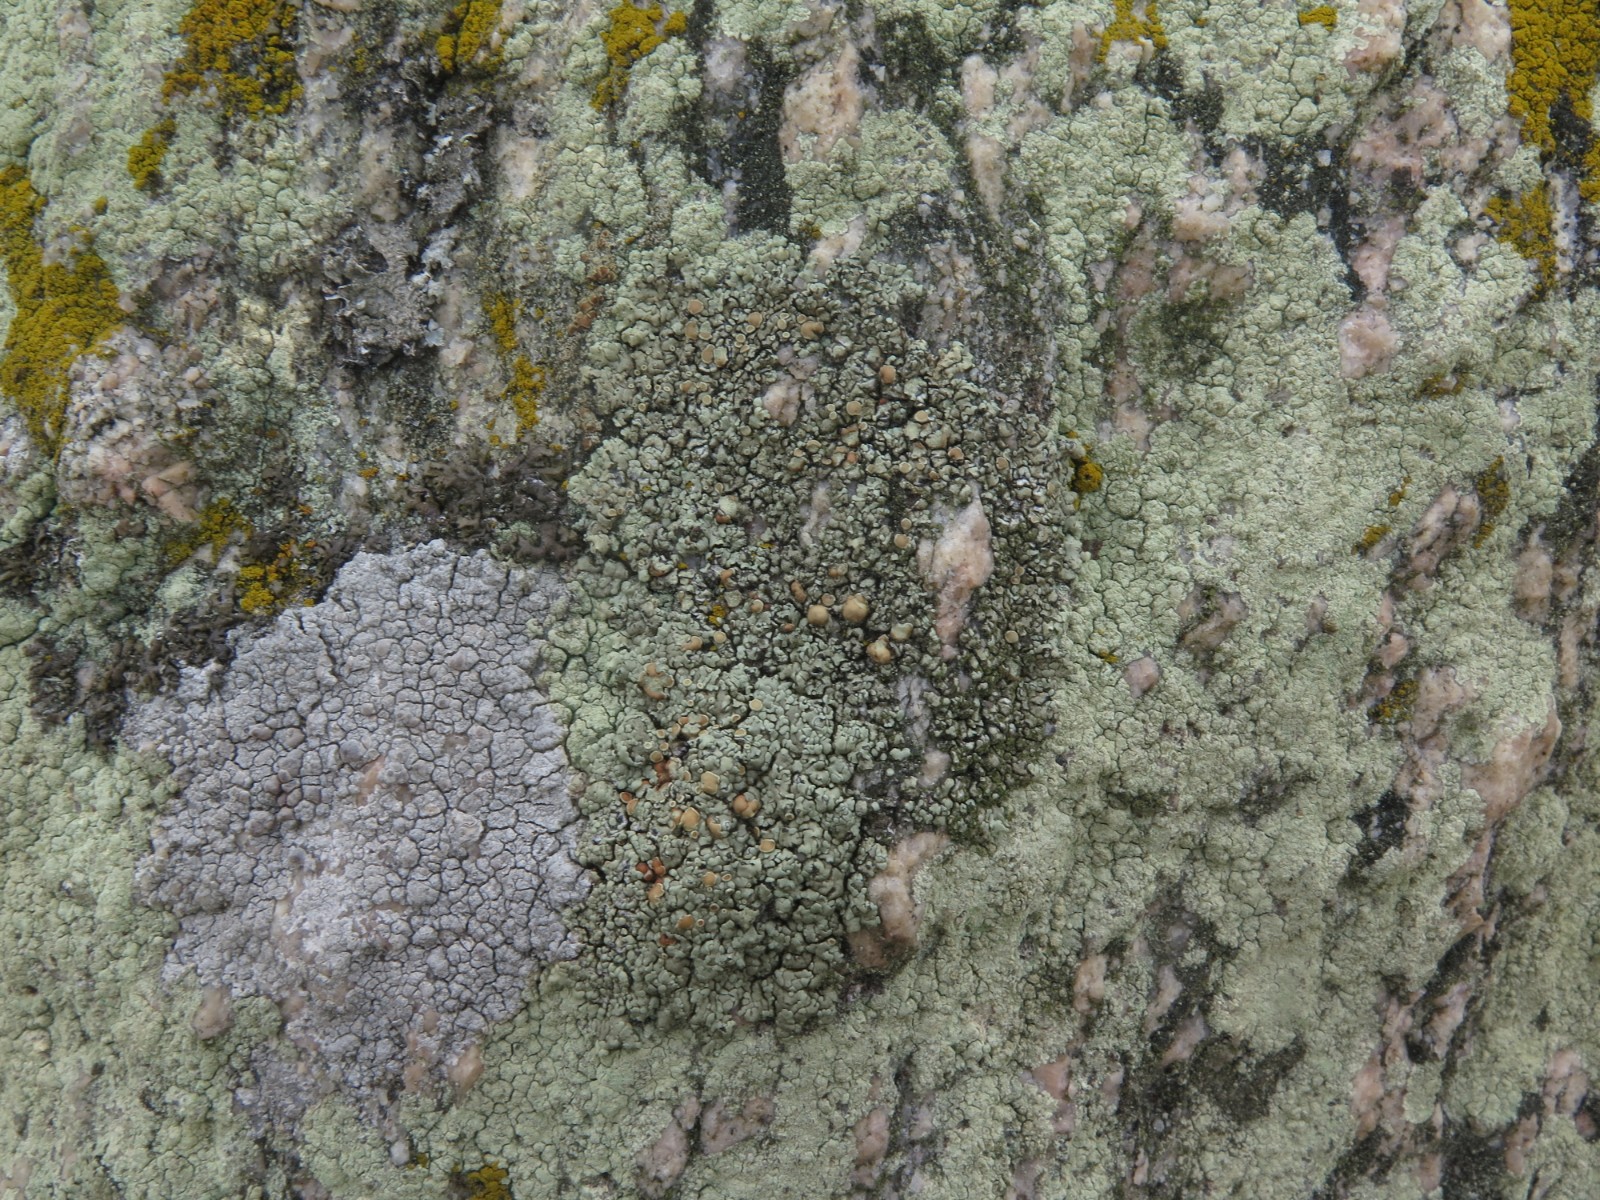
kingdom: Fungi
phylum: Ascomycota
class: Lecanoromycetes
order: Lecanorales
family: Lecanoraceae
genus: Protoparmeliopsis
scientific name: Protoparmeliopsis muralis
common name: randfliget kantskivelav
